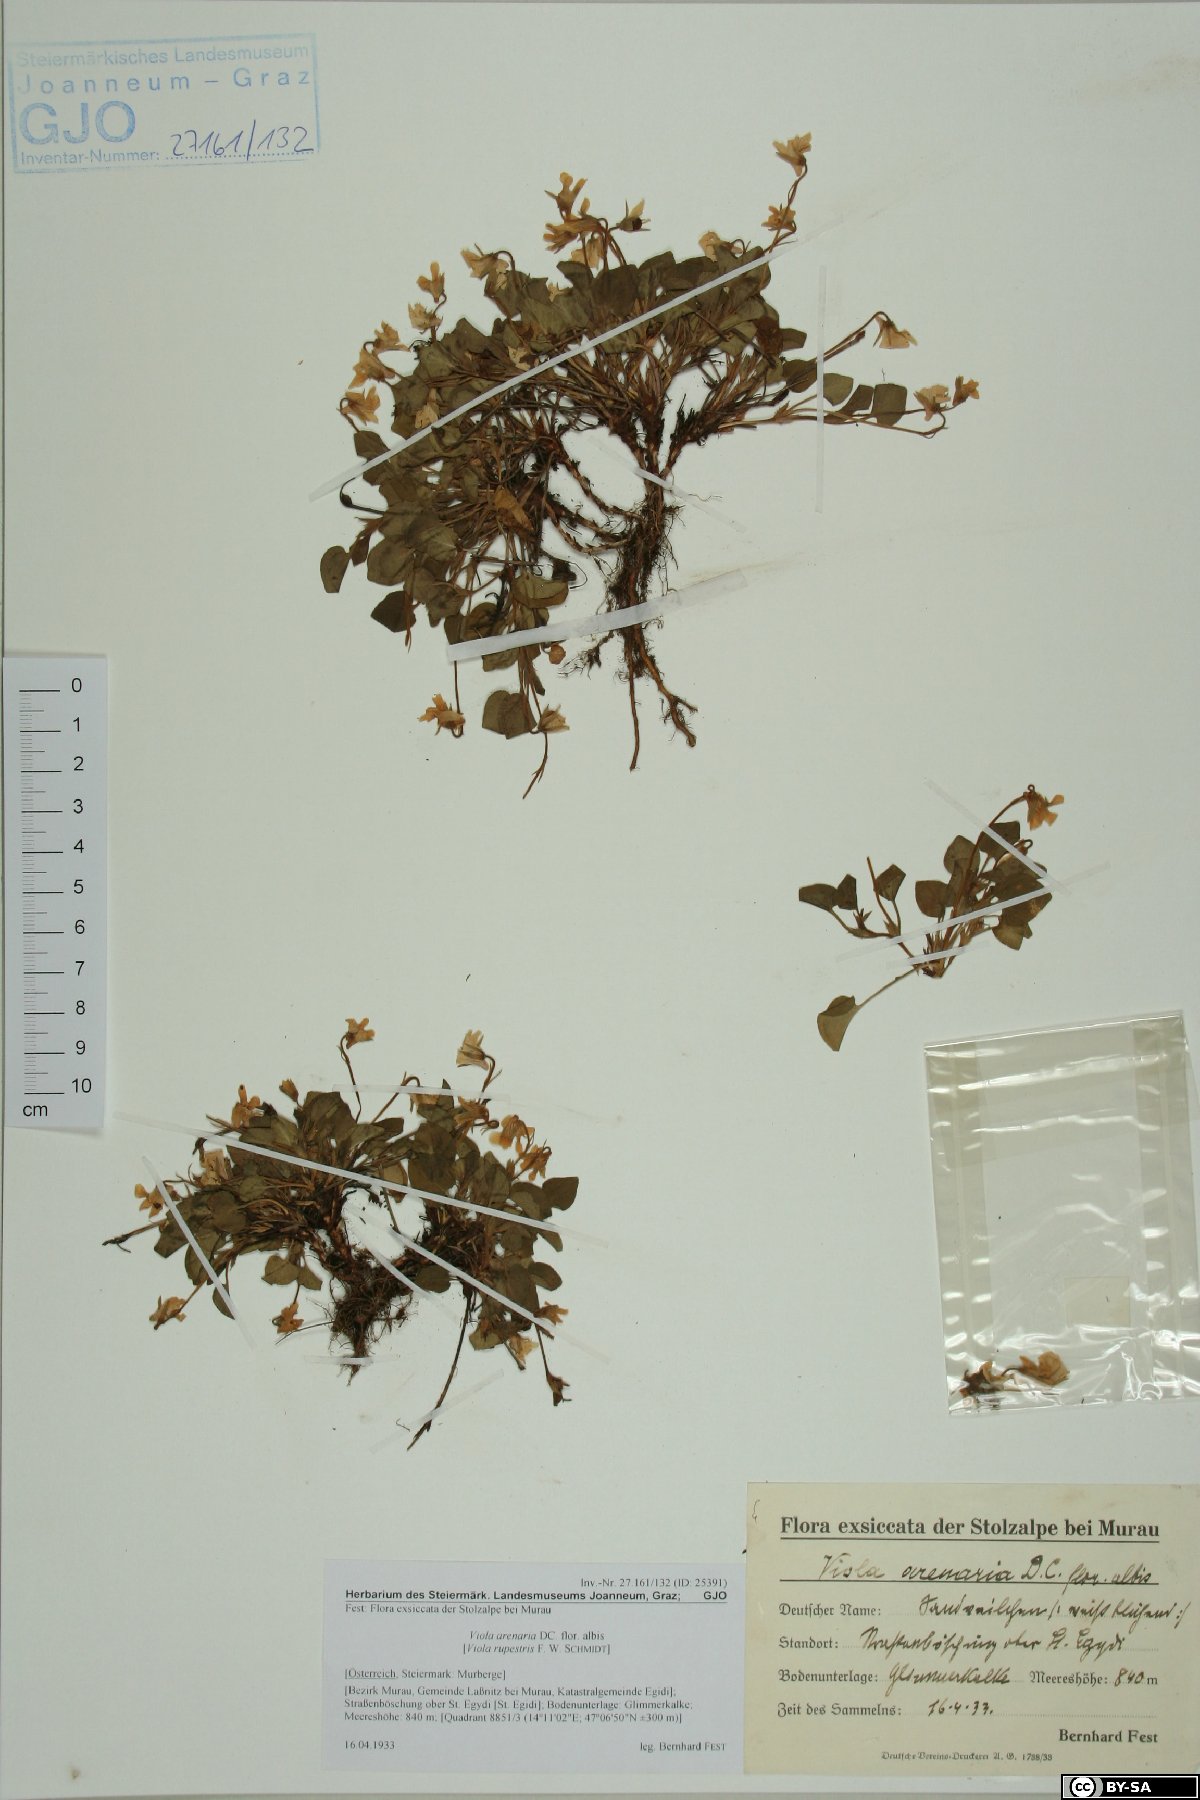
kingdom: Plantae
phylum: Tracheophyta
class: Magnoliopsida
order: Malpighiales
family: Violaceae
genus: Viola
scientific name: Viola rupestris
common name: Teesdale violet
